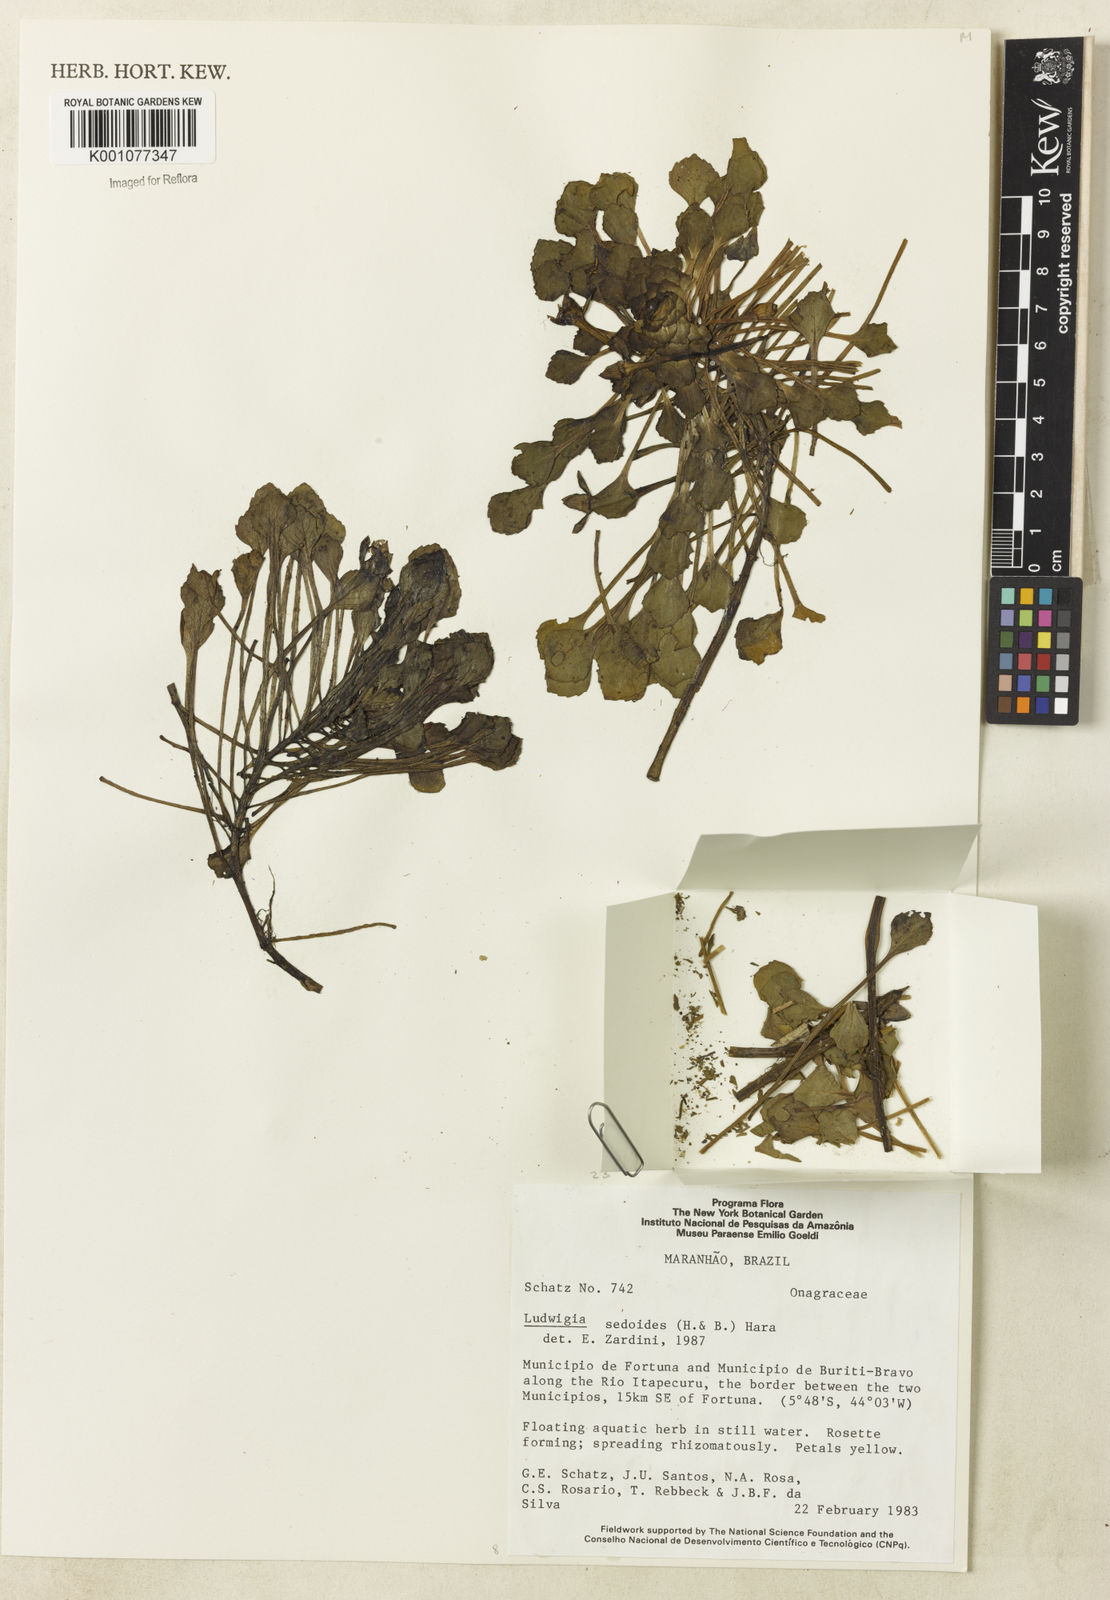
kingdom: Plantae
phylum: Tracheophyta
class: Magnoliopsida
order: Myrtales
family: Onagraceae
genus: Ludwigia
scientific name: Ludwigia sedoides
